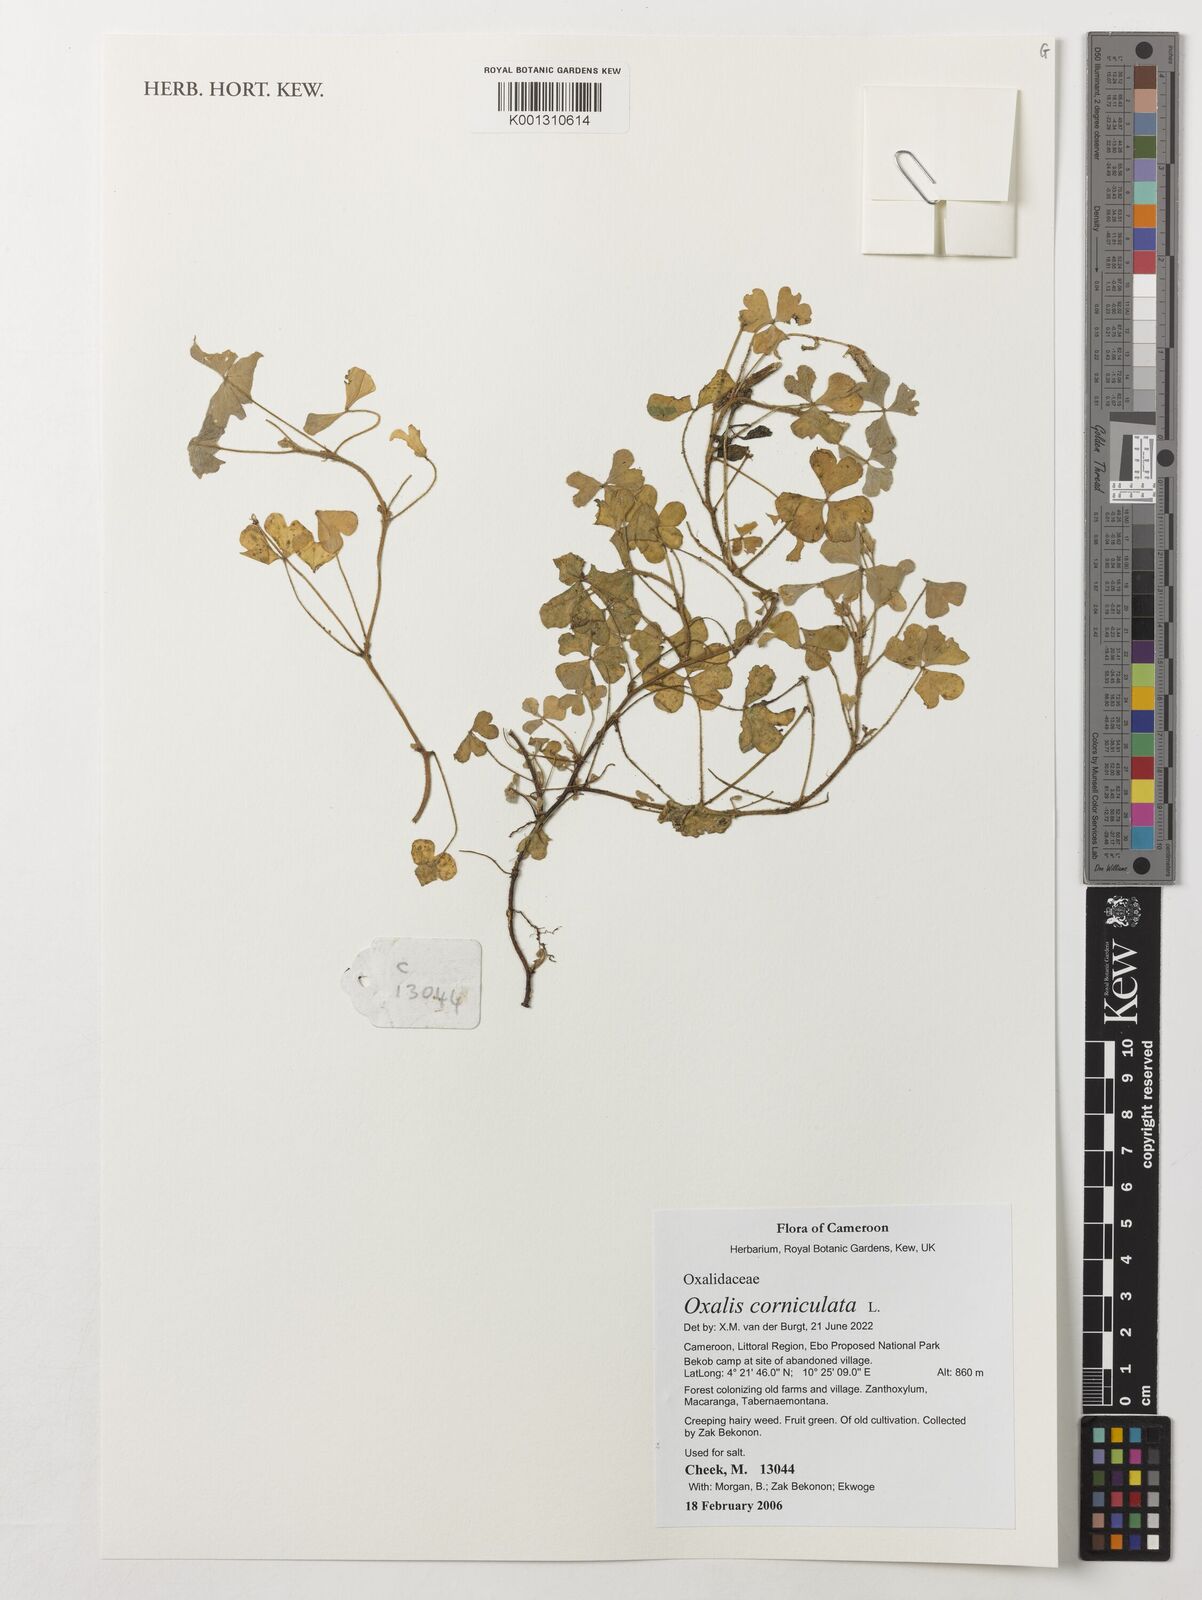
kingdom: Plantae
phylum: Tracheophyta
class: Magnoliopsida
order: Oxalidales
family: Oxalidaceae
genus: Oxalis
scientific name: Oxalis corniculata
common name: Procumbent yellow-sorrel
